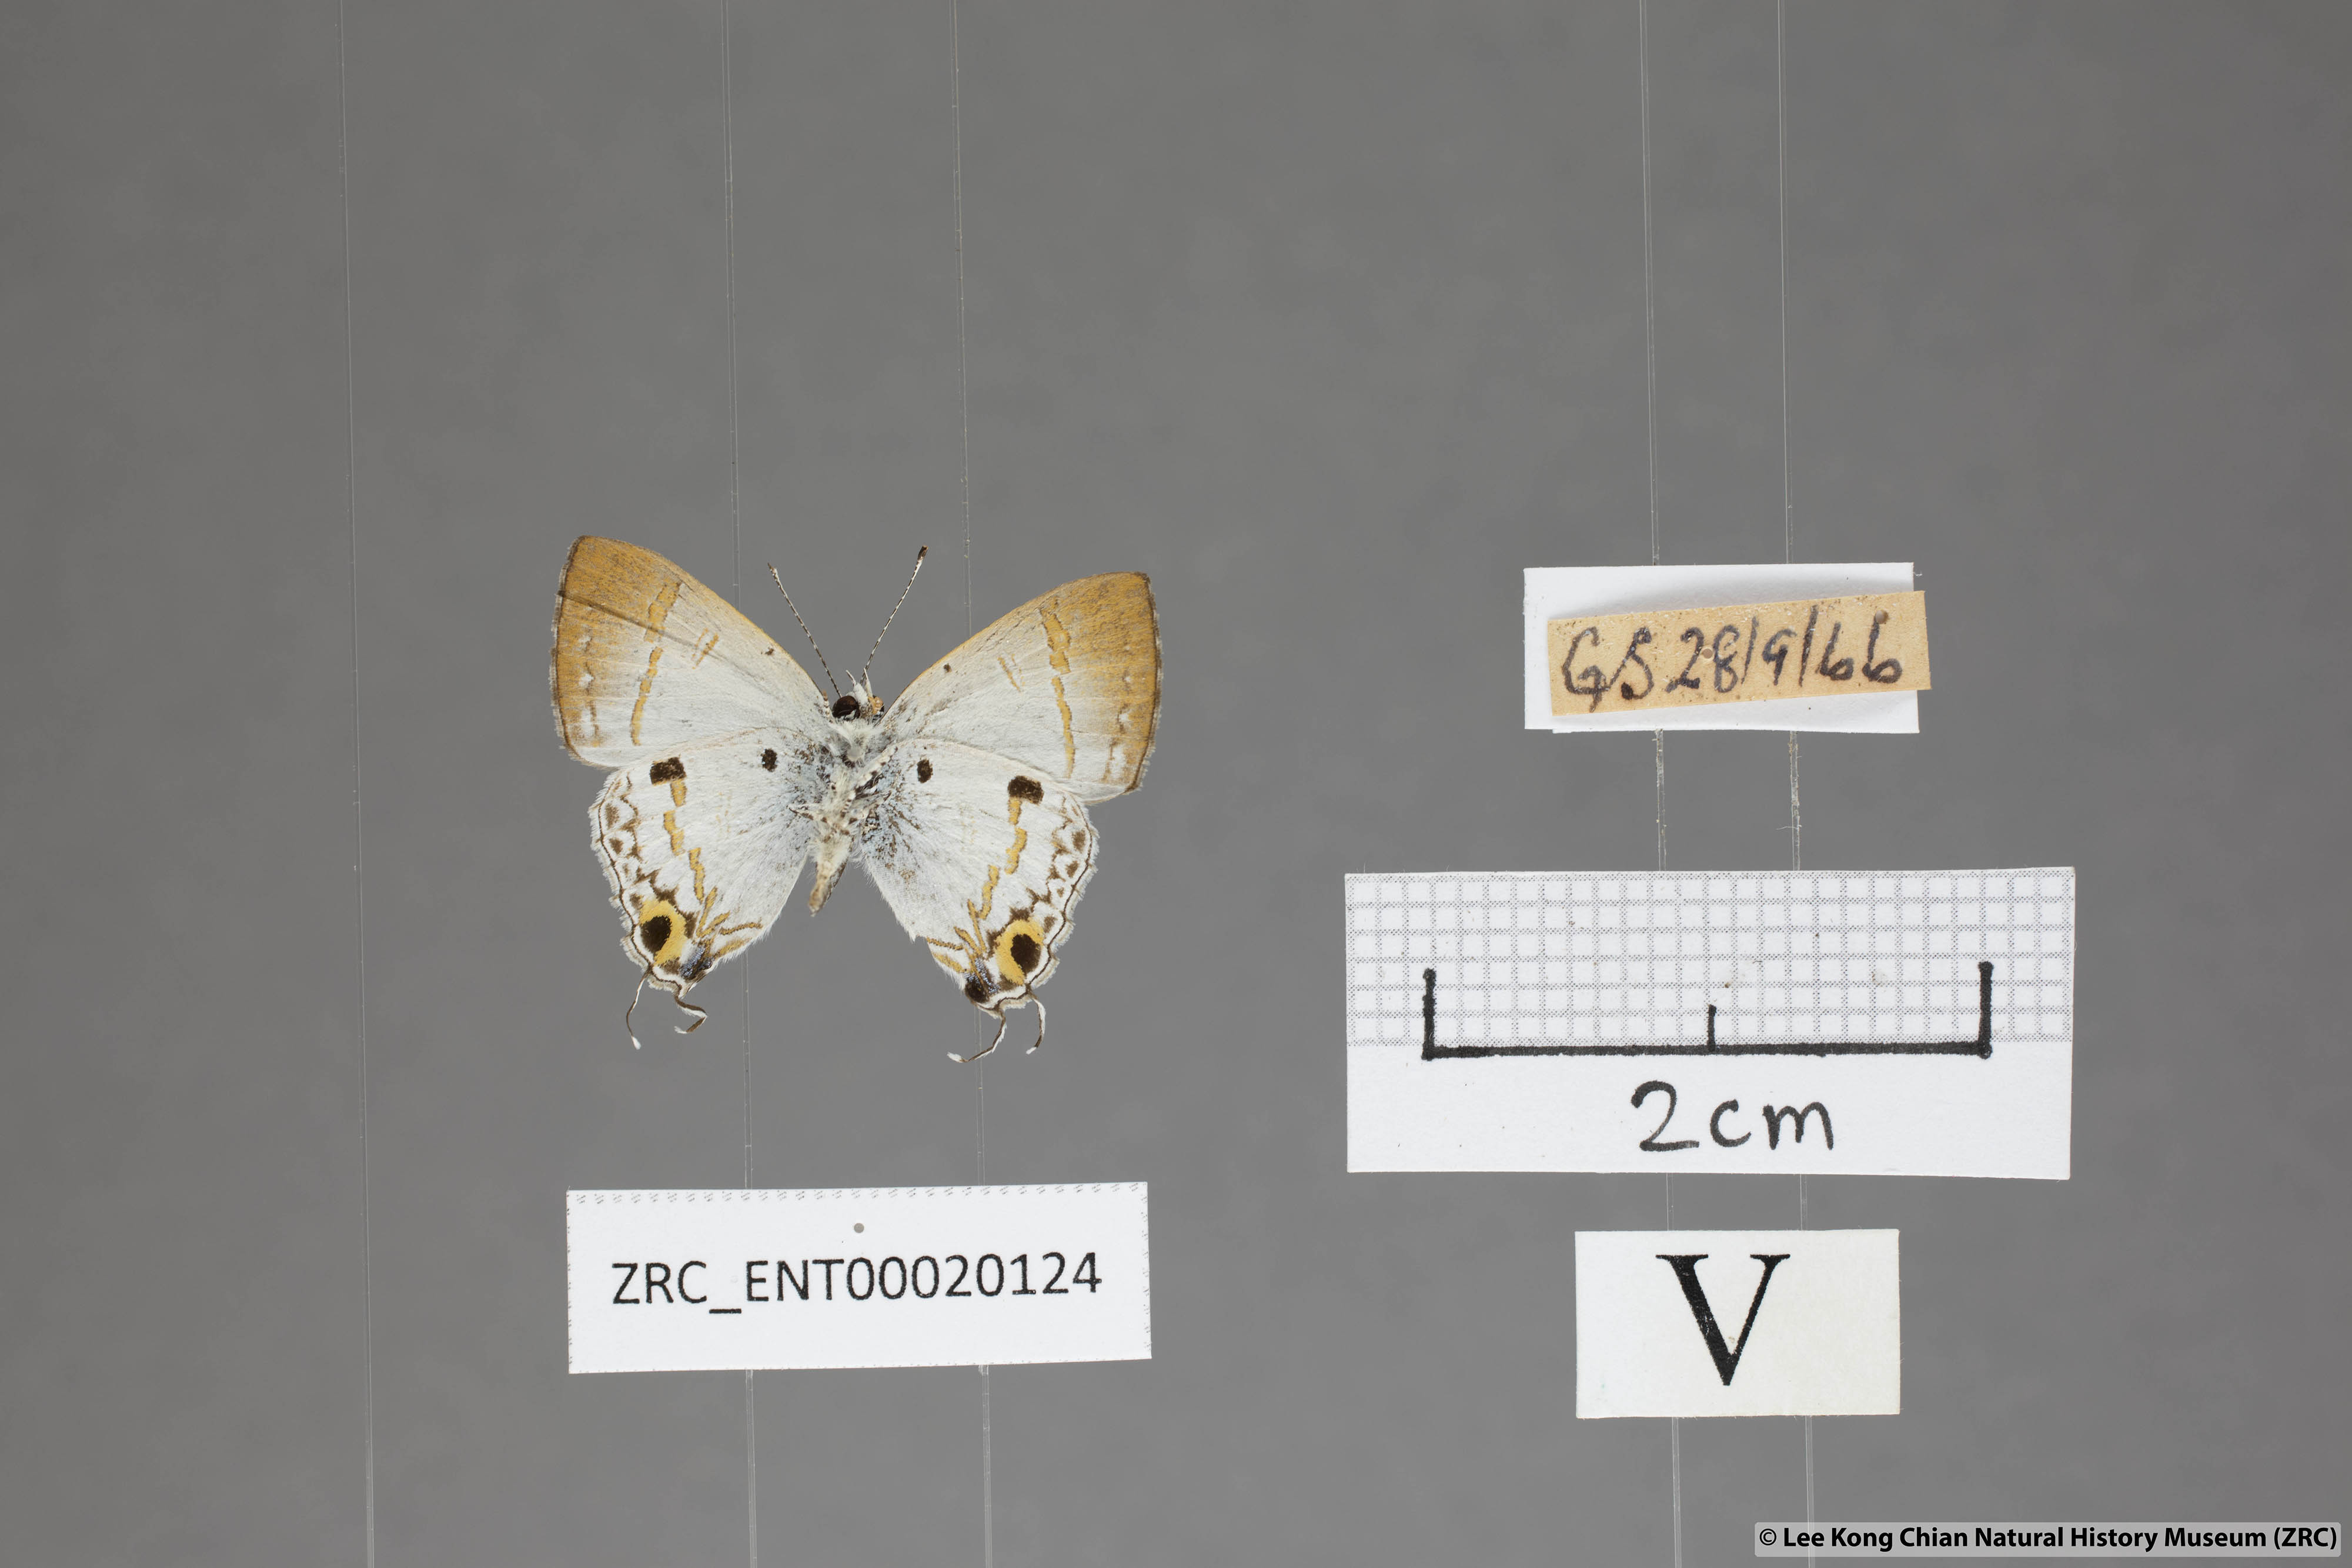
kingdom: Animalia
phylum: Arthropoda
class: Insecta
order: Lepidoptera
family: Lycaenidae
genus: Chliaria
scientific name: Chliaria othona
